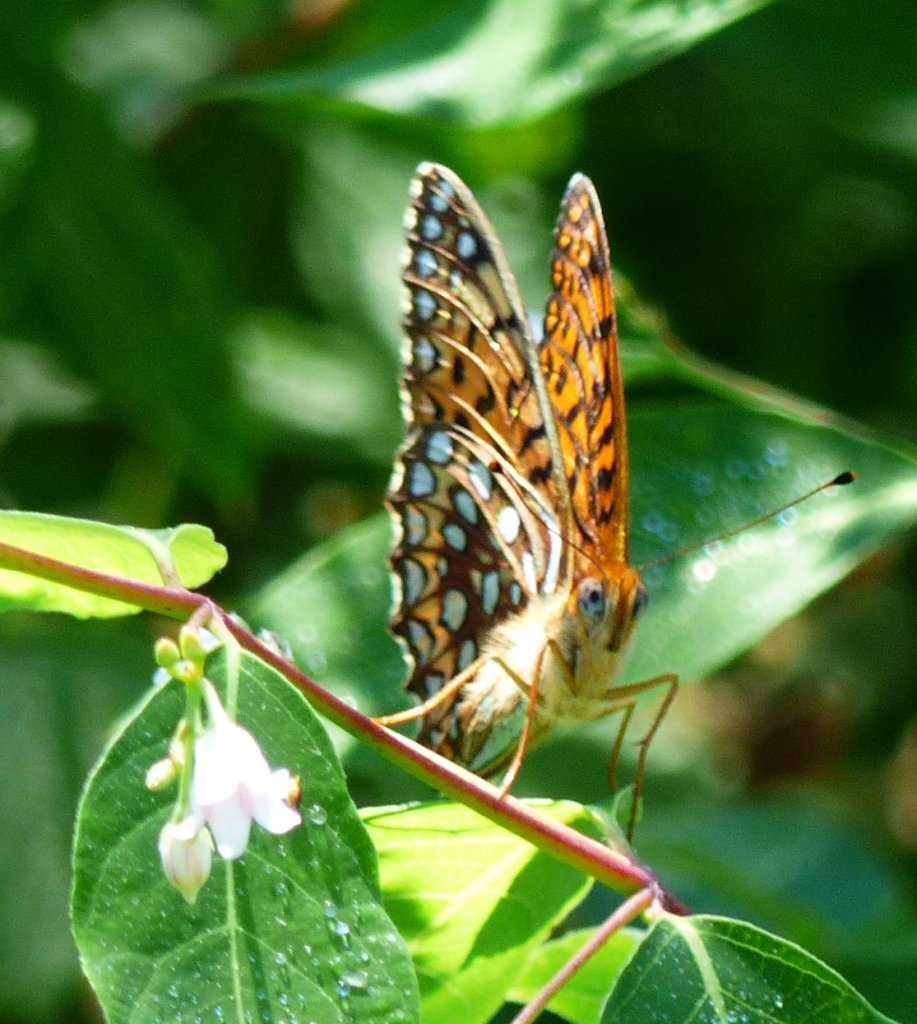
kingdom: Animalia
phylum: Arthropoda
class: Insecta
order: Lepidoptera
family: Nymphalidae
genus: Speyeria
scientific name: Speyeria atlantis
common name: Atlantis Fritillary
